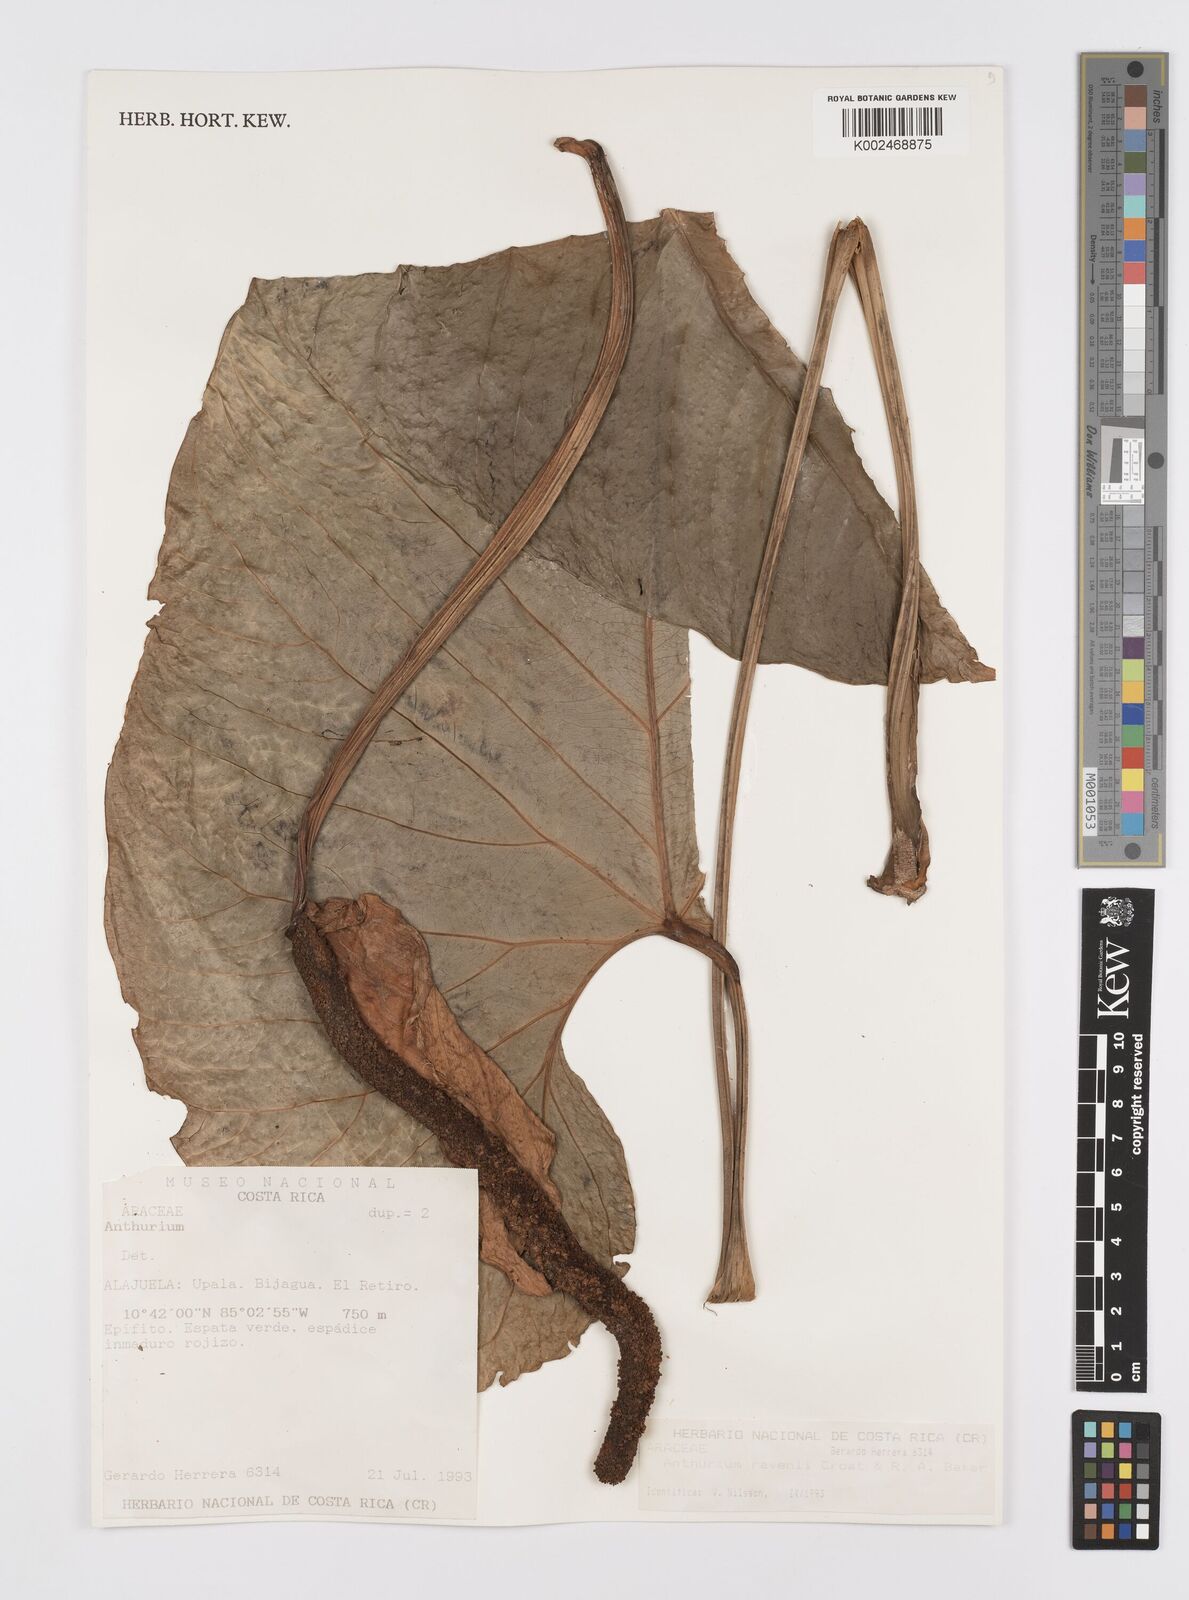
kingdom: Plantae
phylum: Tracheophyta
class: Liliopsida
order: Alismatales
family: Araceae
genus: Anthurium
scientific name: Anthurium ravenii
